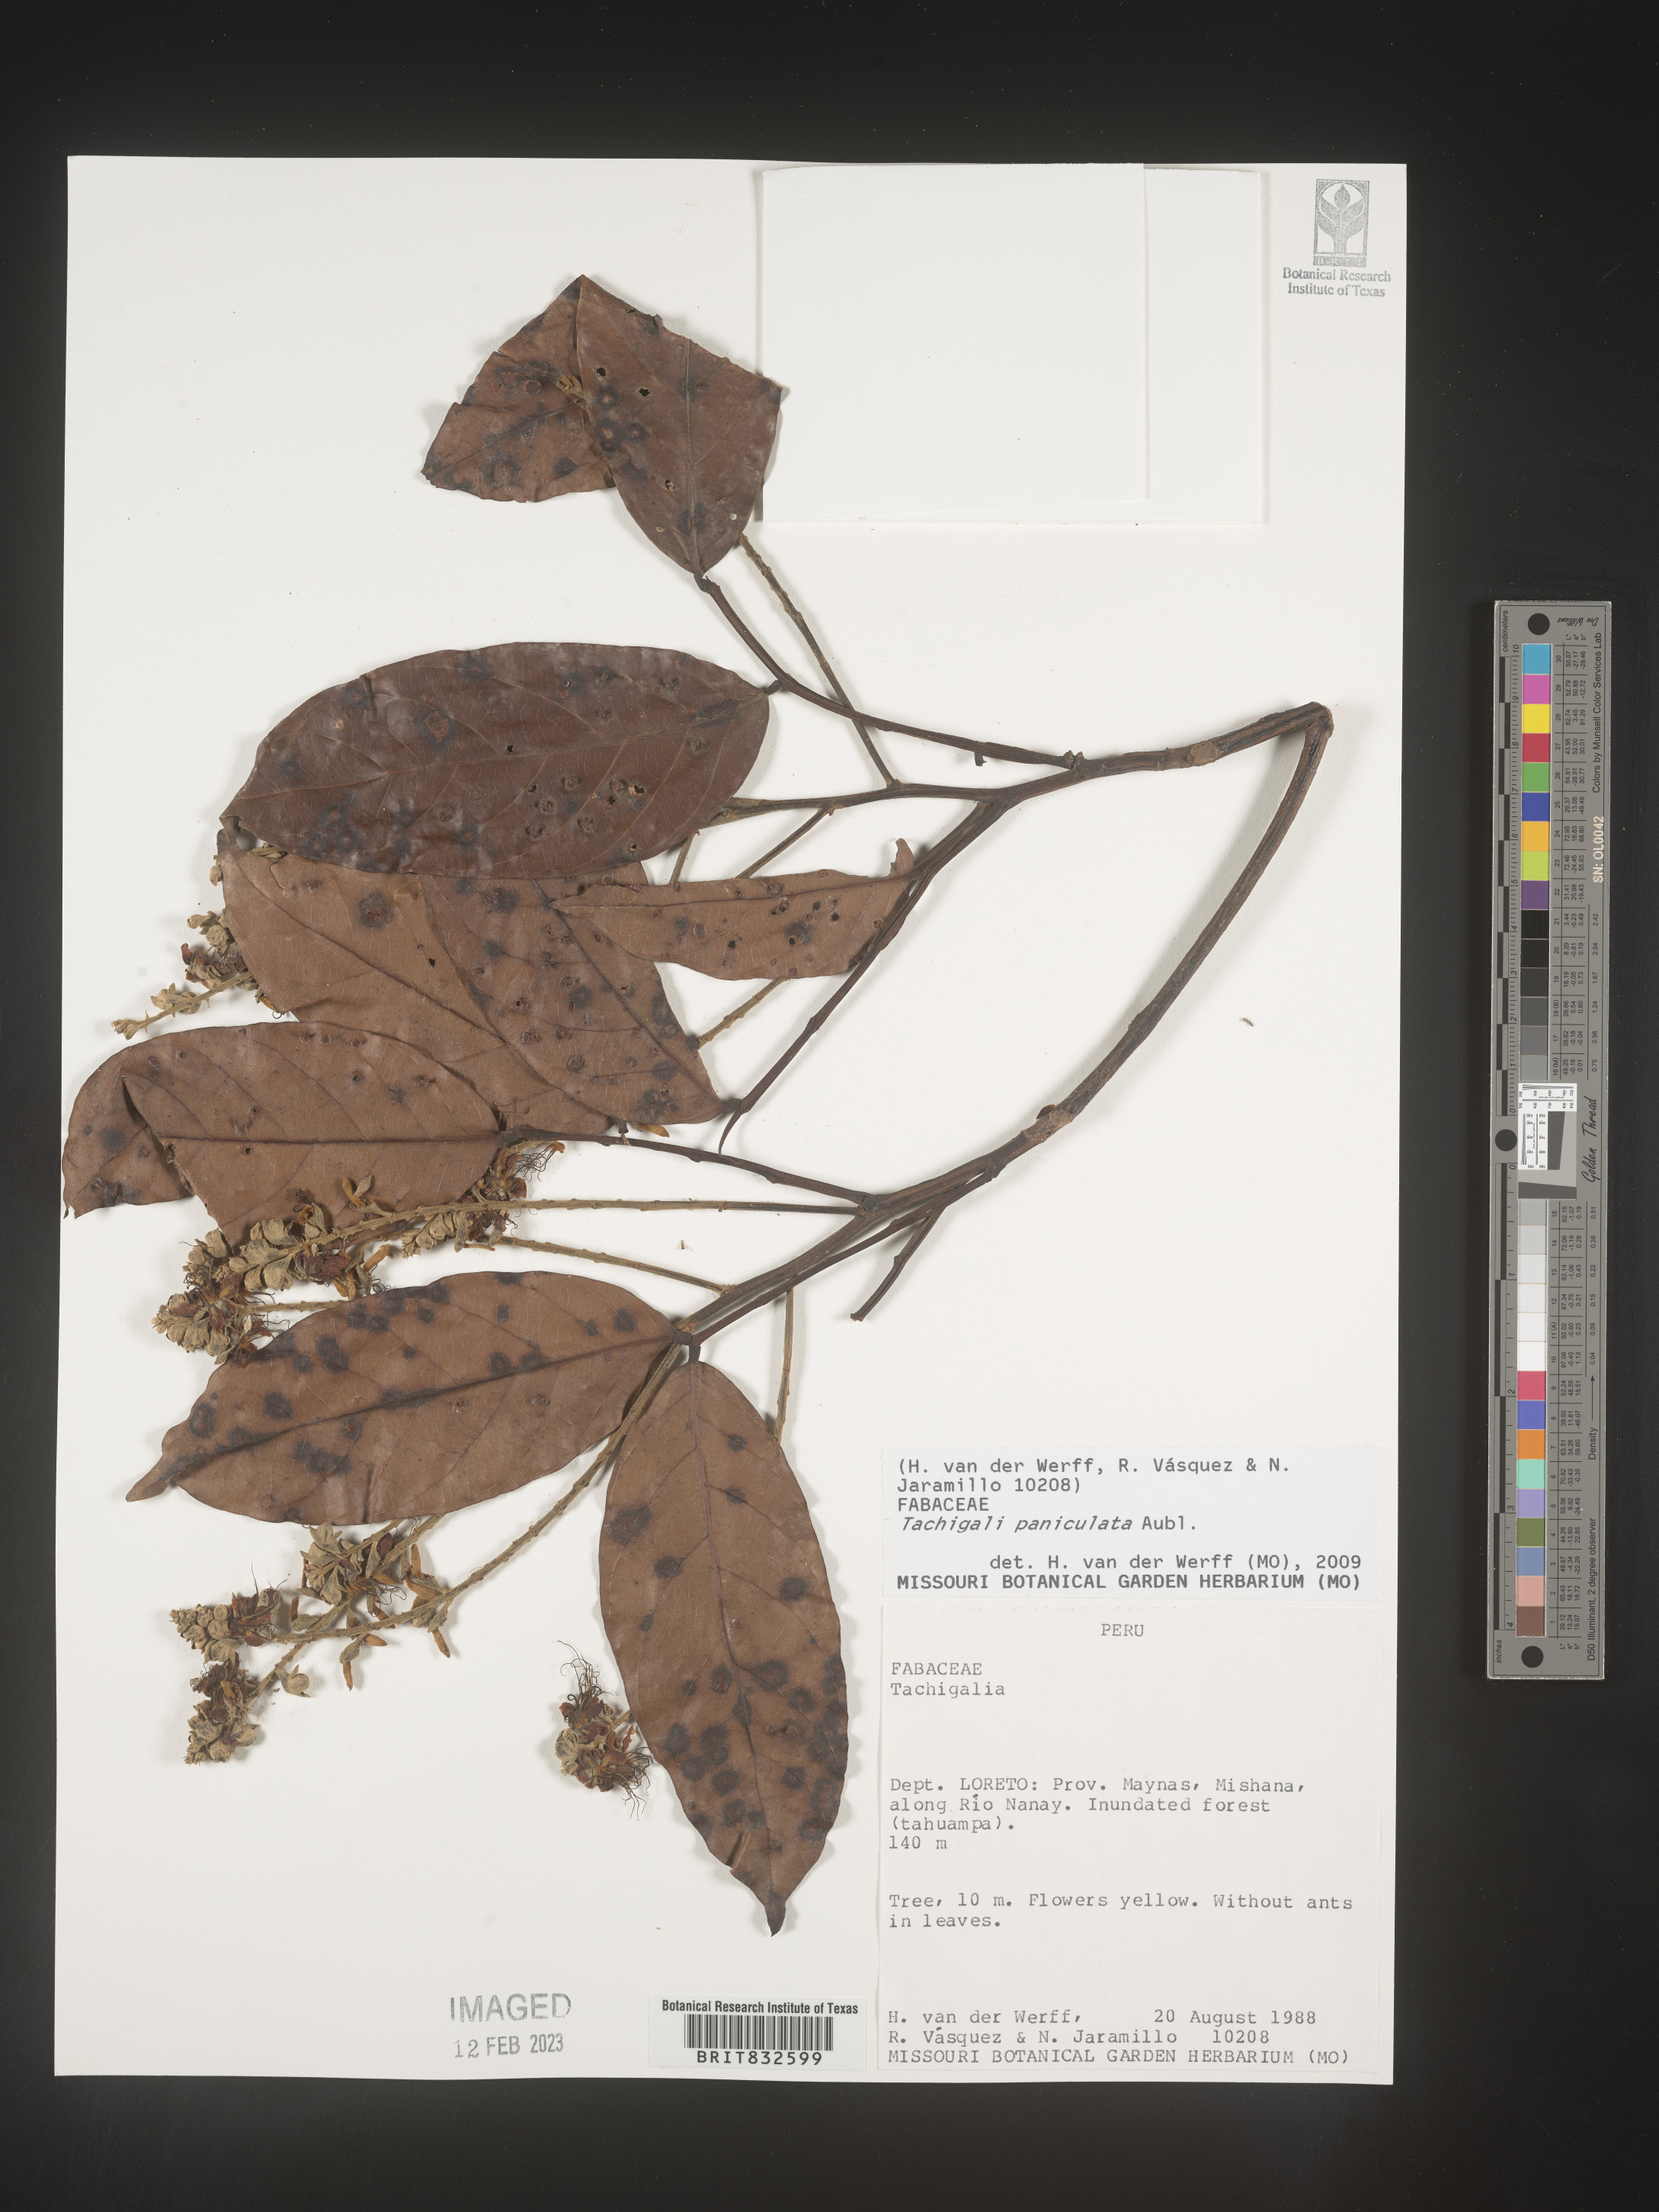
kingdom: Plantae
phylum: Tracheophyta
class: Magnoliopsida
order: Fabales
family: Fabaceae
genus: Tachigali
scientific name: Tachigali
